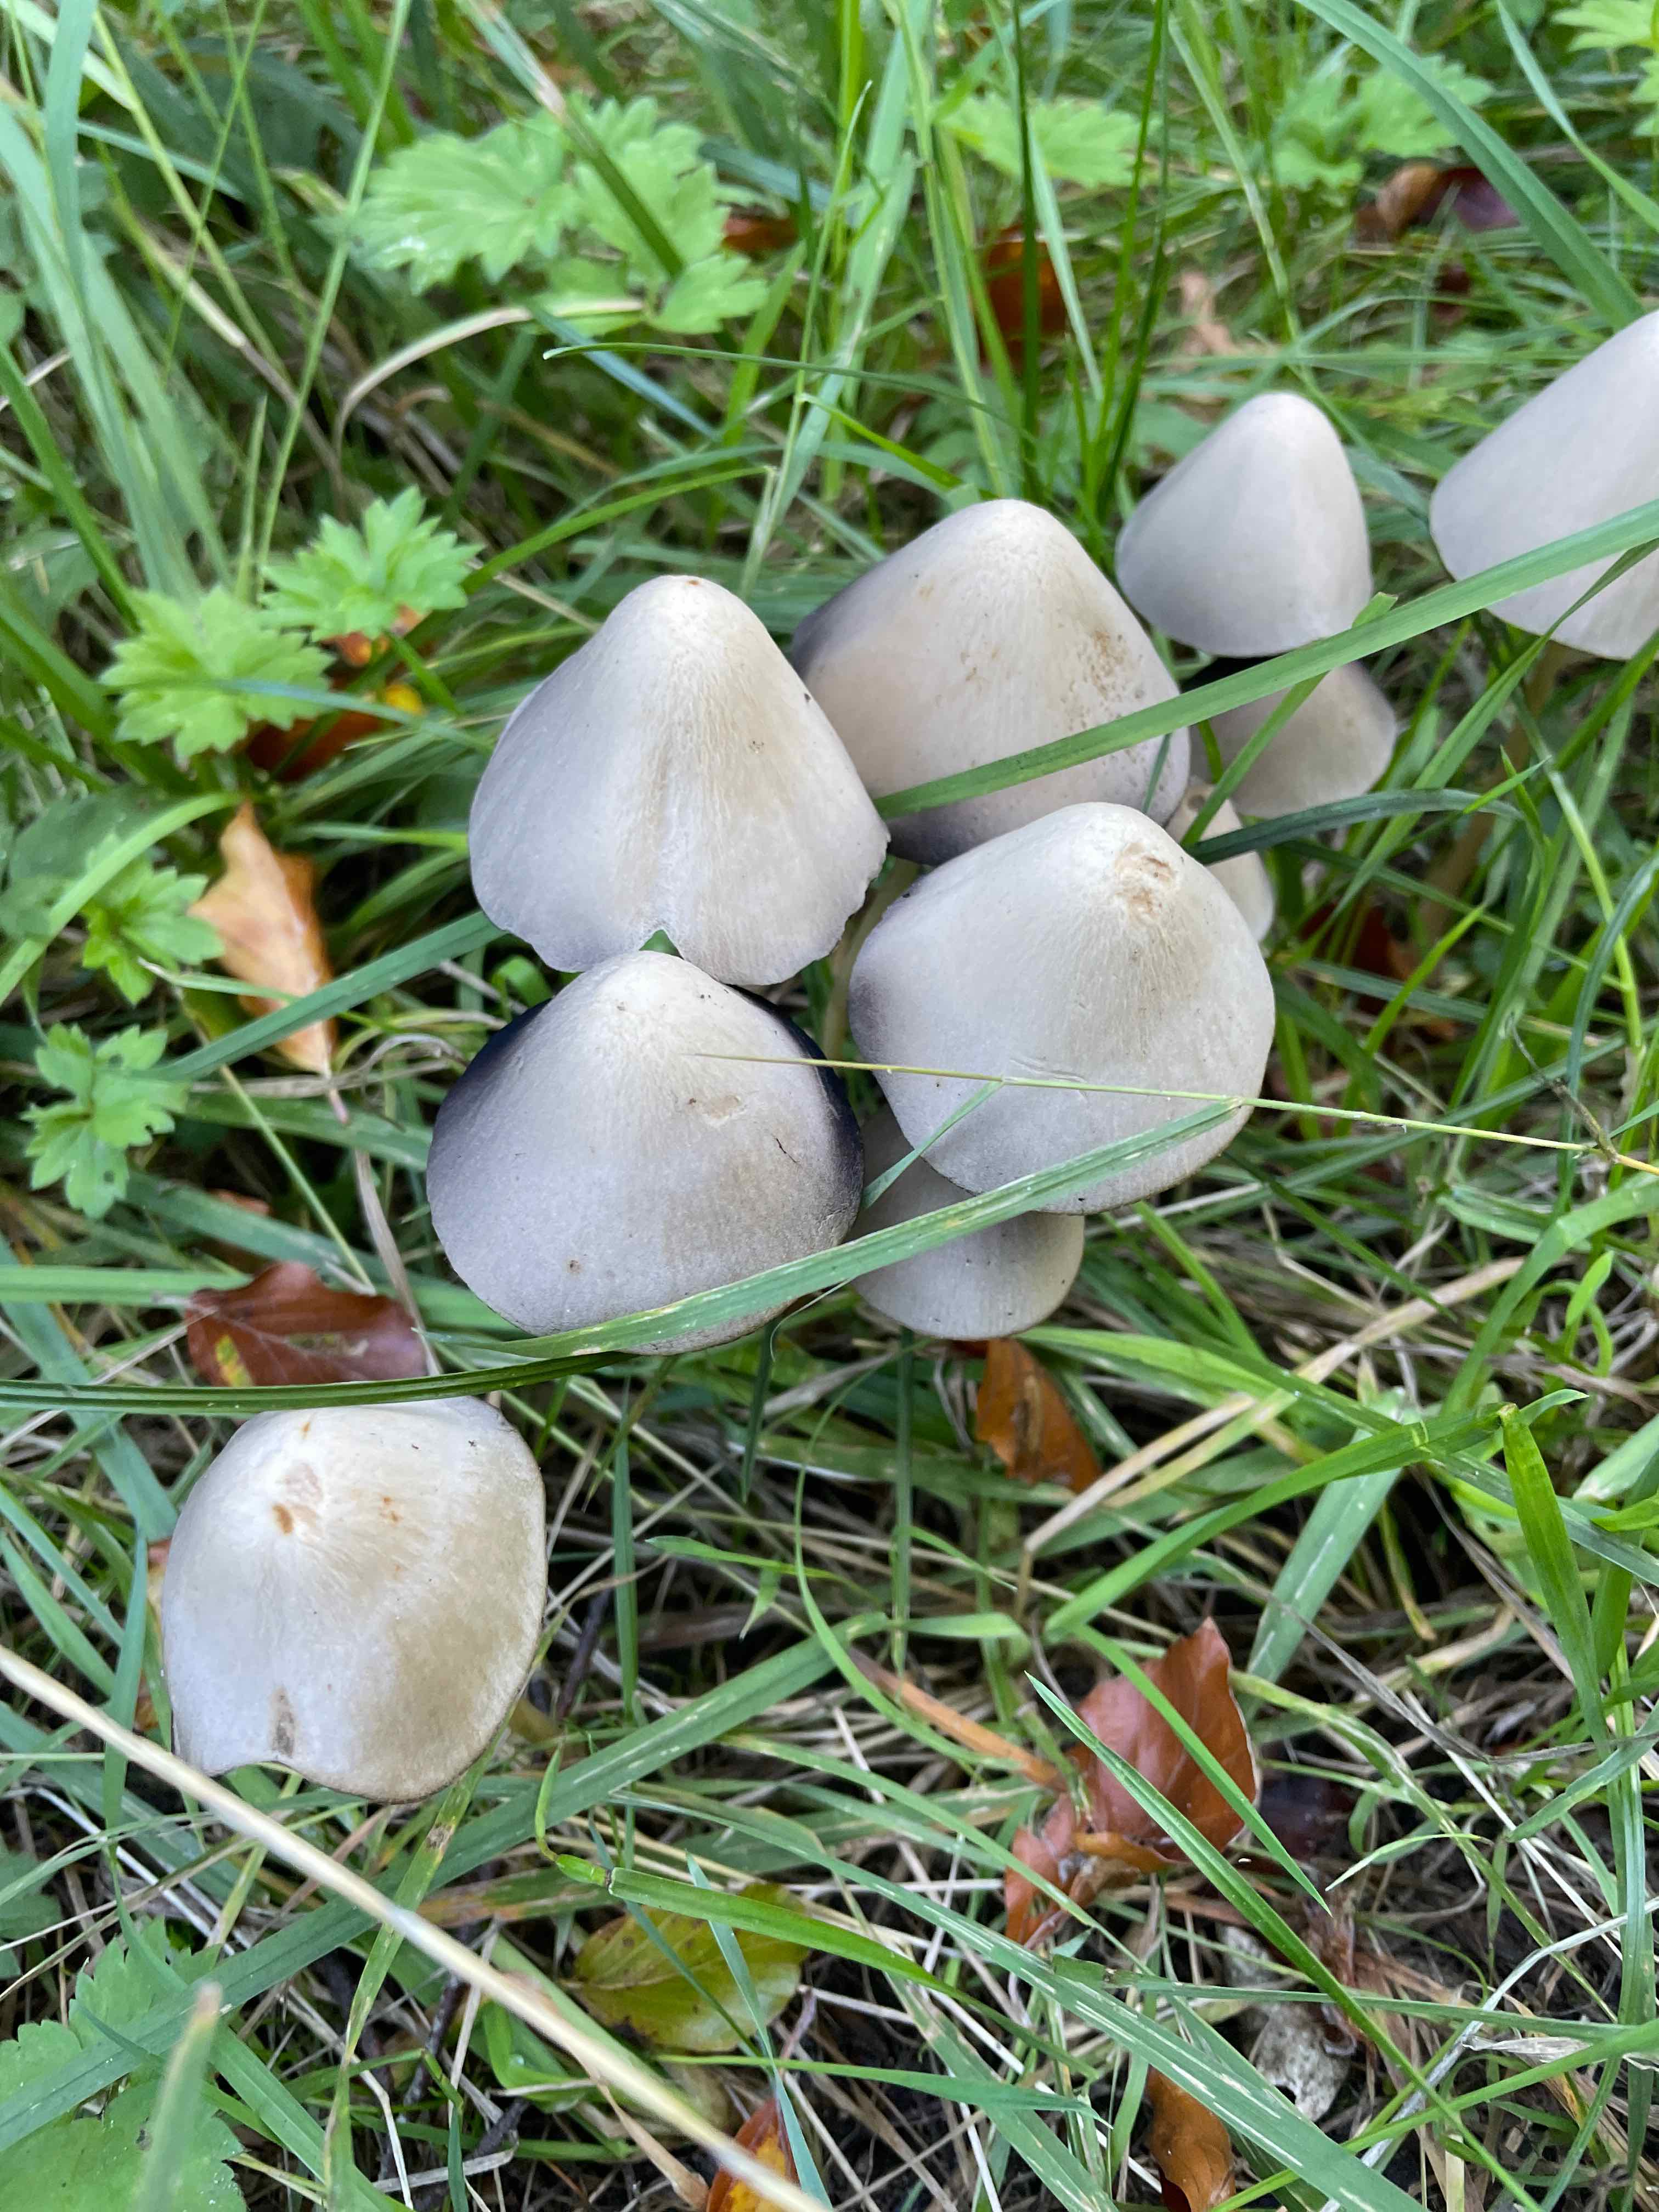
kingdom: Fungi
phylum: Basidiomycota
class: Agaricomycetes
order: Agaricales
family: Psathyrellaceae
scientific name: Psathyrellaceae
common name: mørkhatfamilien
